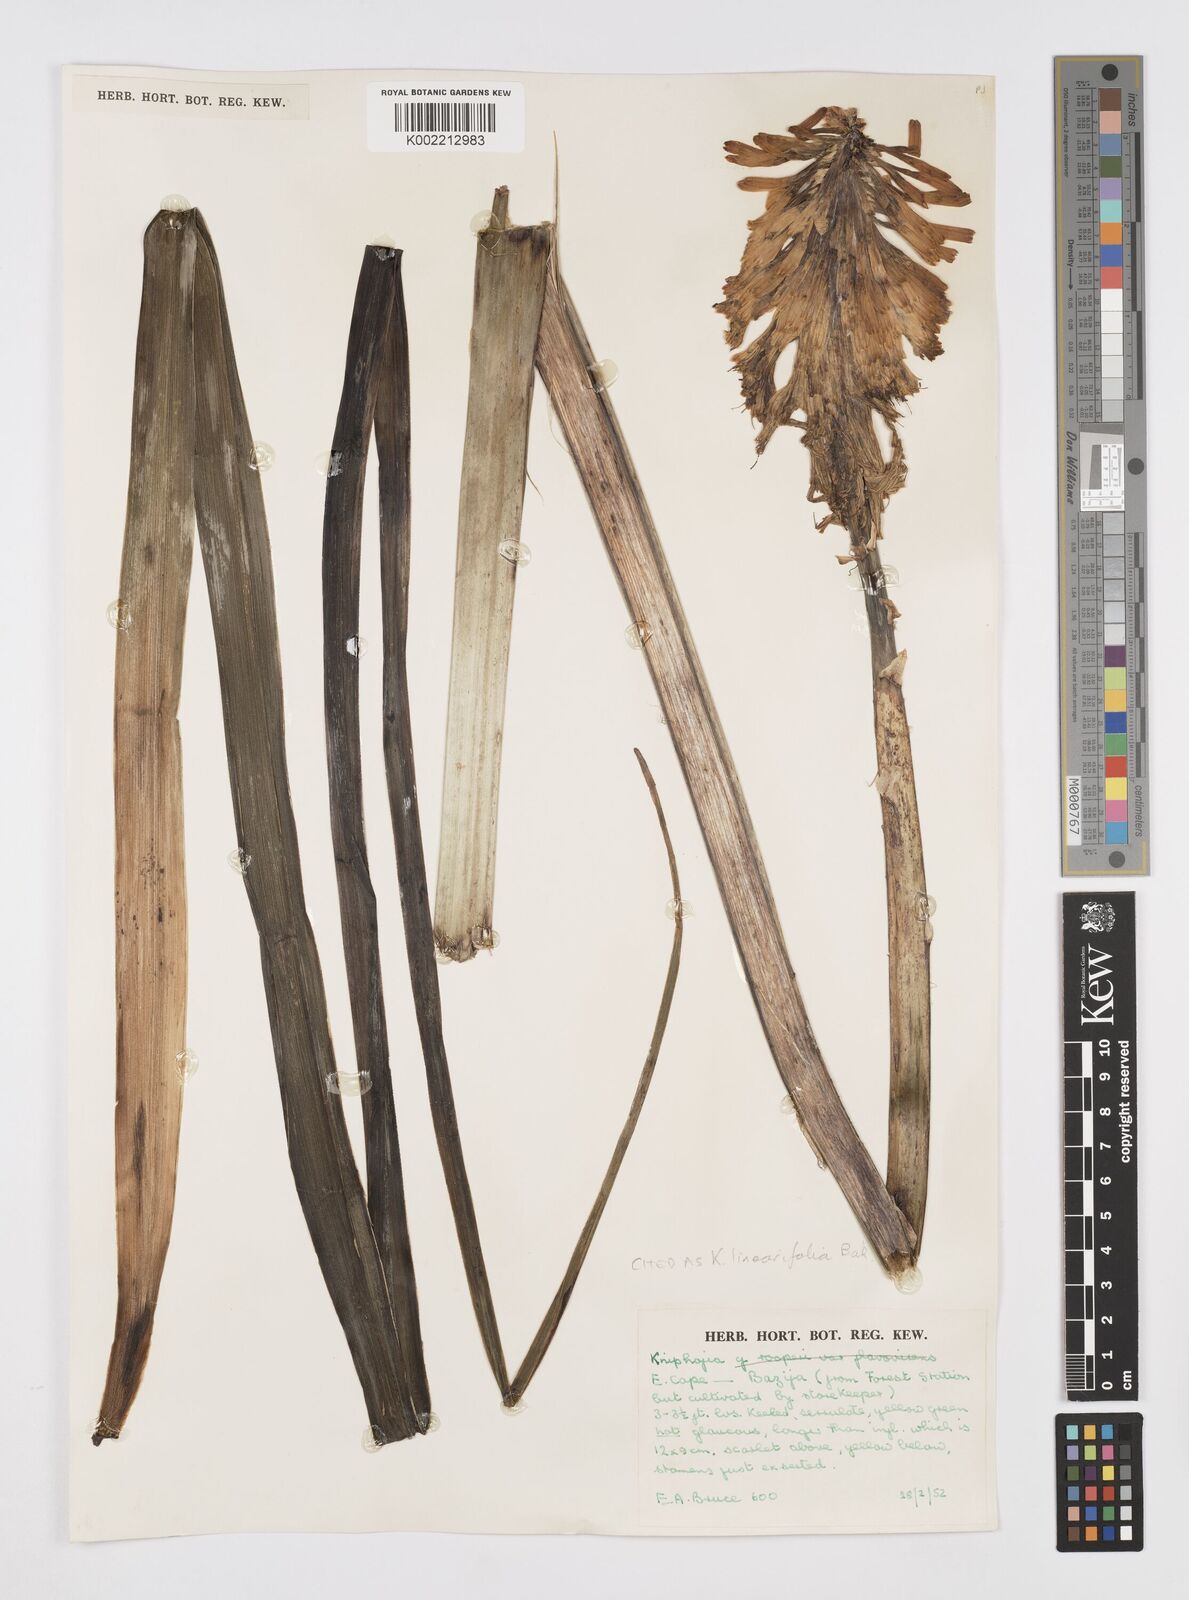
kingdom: Plantae
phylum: Tracheophyta
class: Liliopsida
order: Asparagales
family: Asphodelaceae
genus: Kniphofia
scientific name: Kniphofia linearifolia
